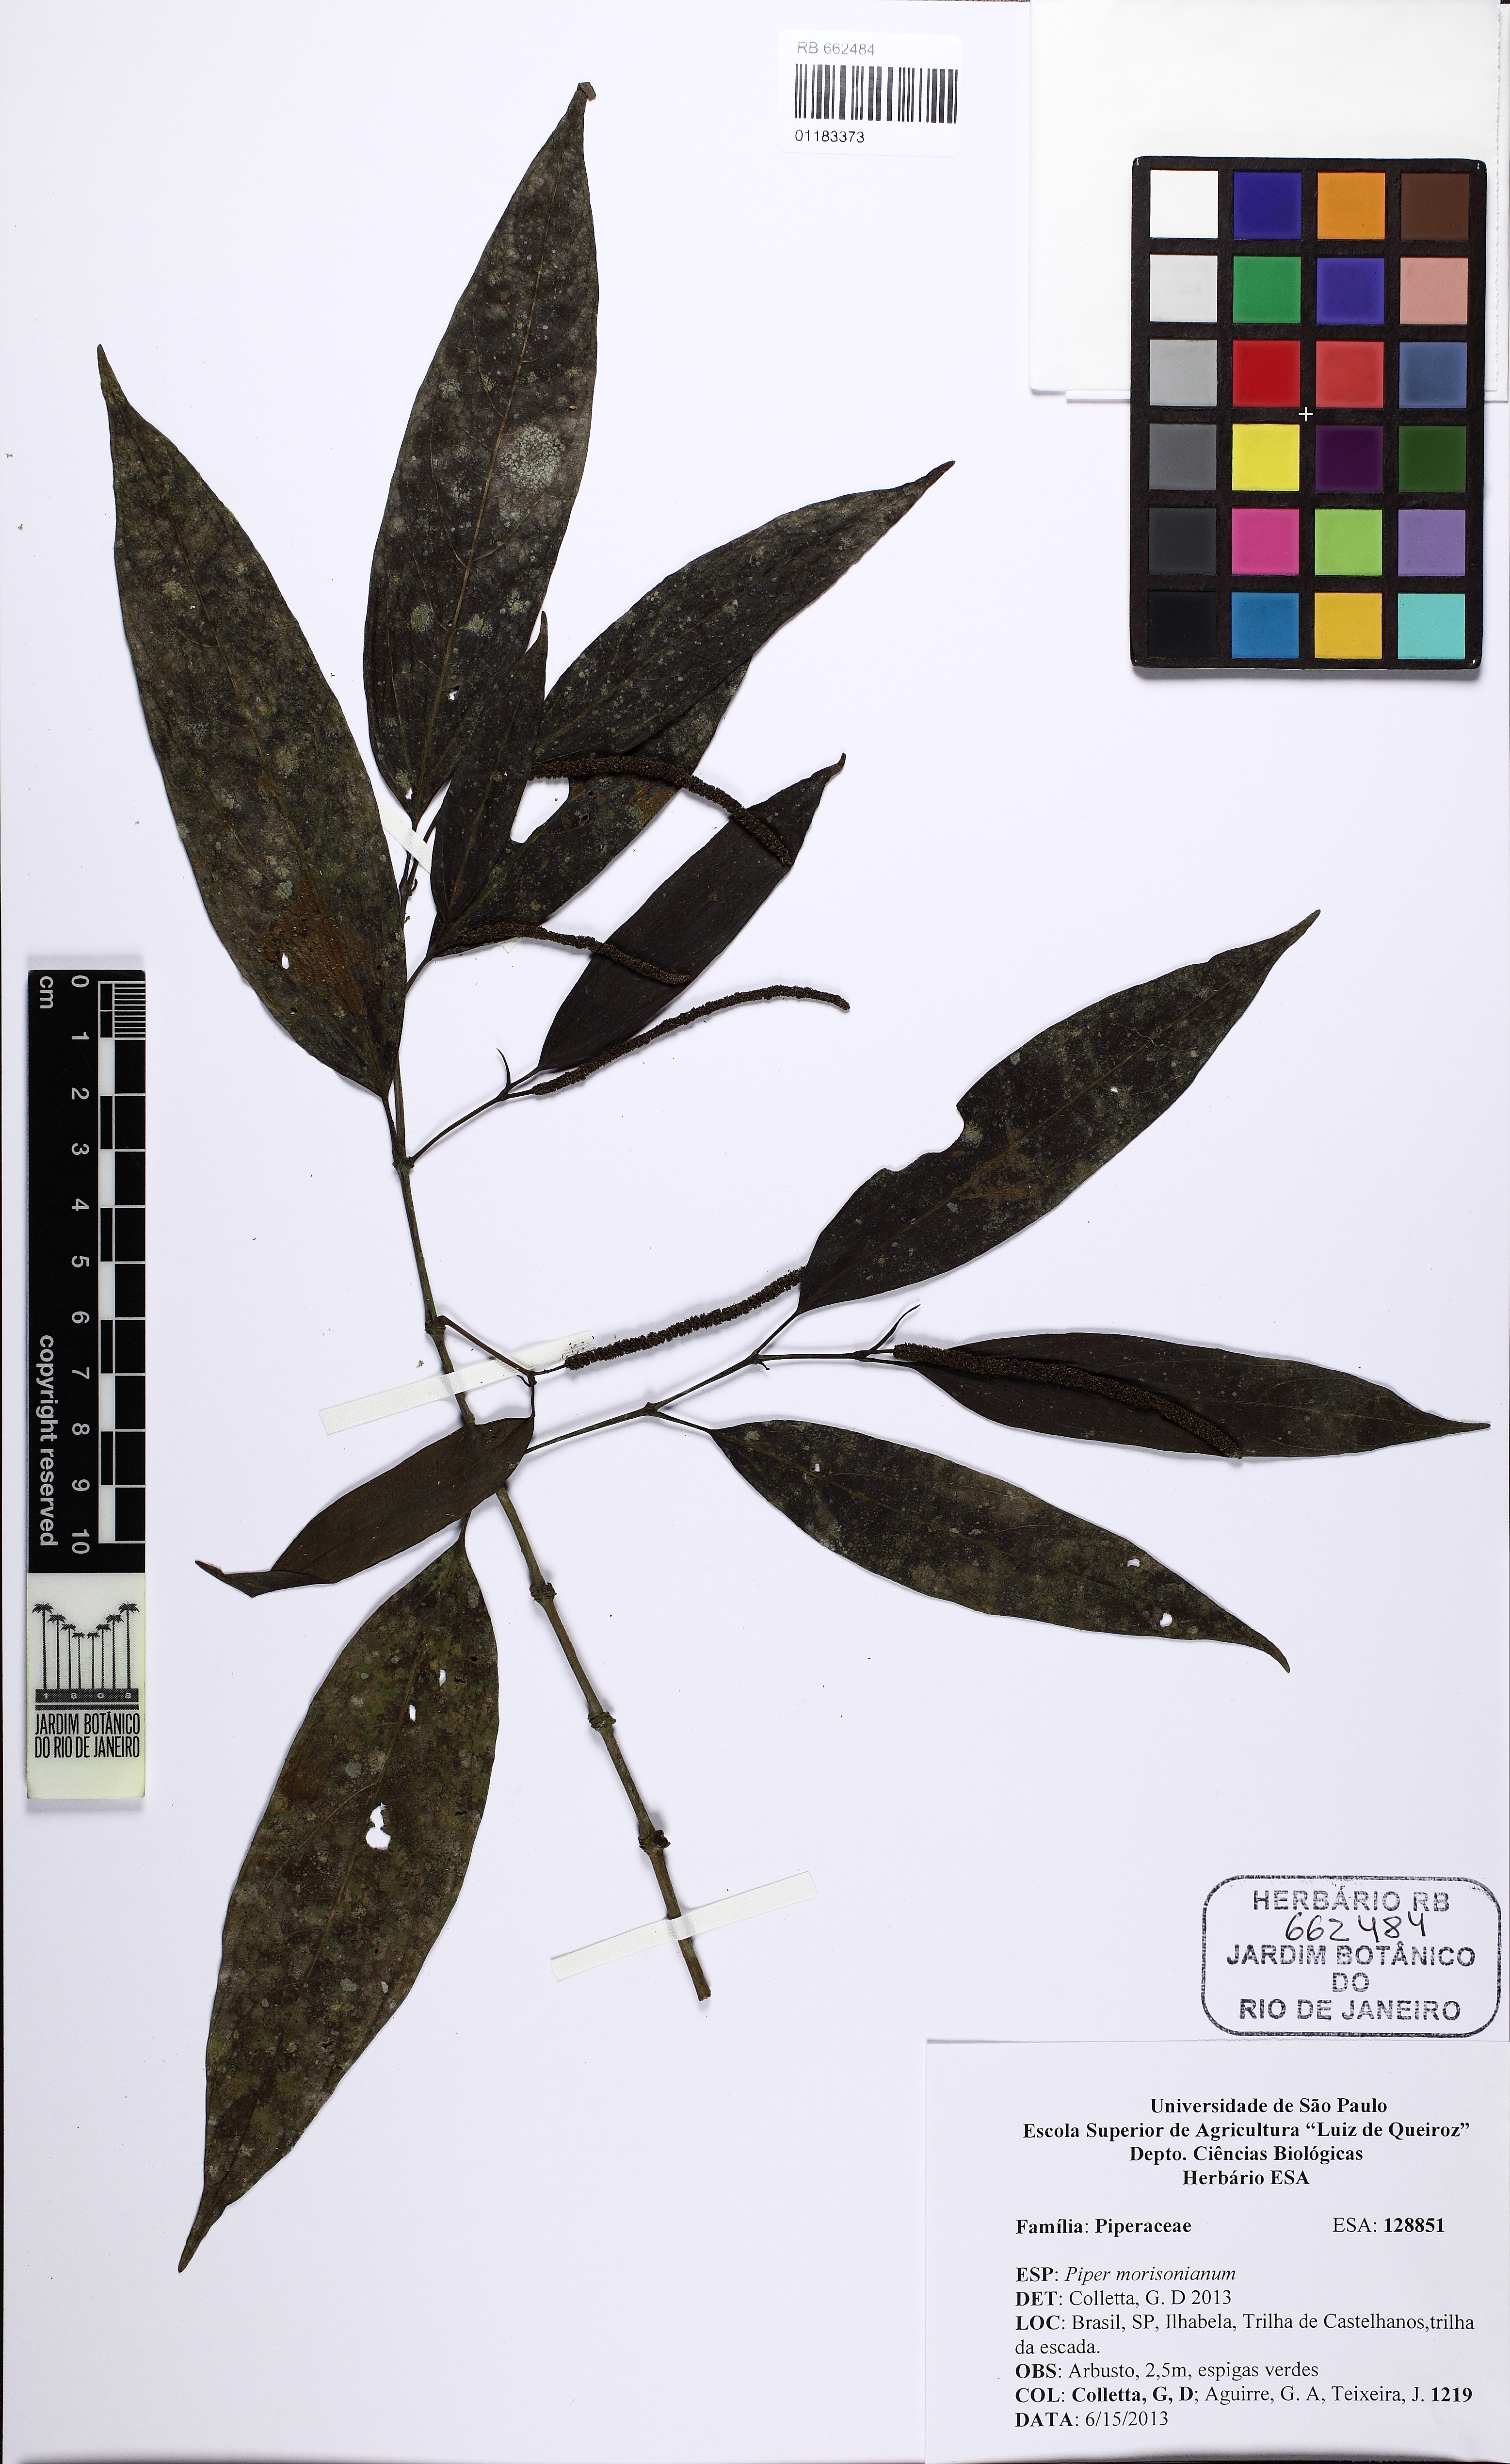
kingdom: Plantae
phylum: Tracheophyta
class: Magnoliopsida
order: Piperales
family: Piperaceae
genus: Piper
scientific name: Piper morisonianum
